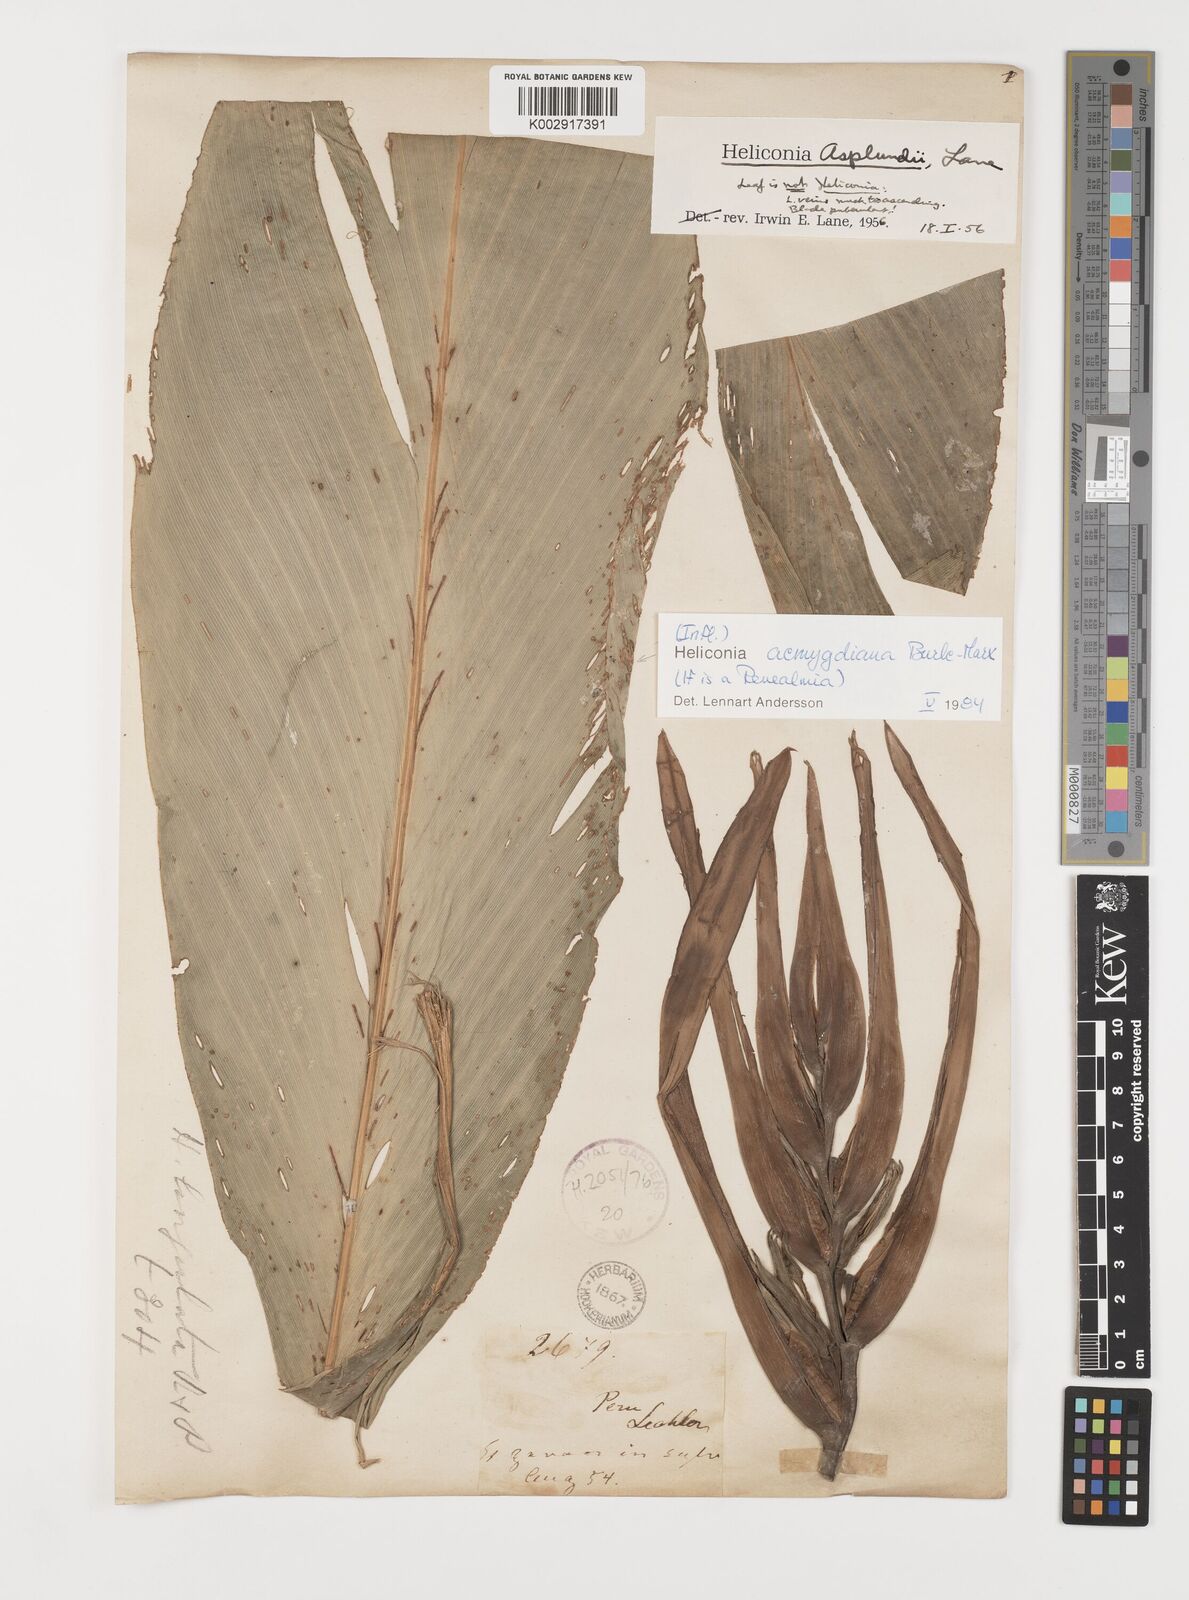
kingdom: Plantae
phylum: Tracheophyta
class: Liliopsida
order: Zingiberales
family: Heliconiaceae
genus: Heliconia
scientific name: Heliconia aemygdiana
